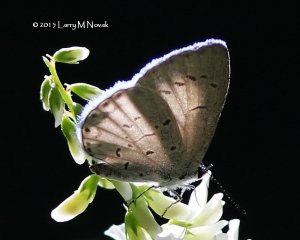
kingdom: Animalia
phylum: Arthropoda
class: Insecta
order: Lepidoptera
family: Lycaenidae
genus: Cyaniris
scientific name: Cyaniris neglecta
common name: Summer Azure
